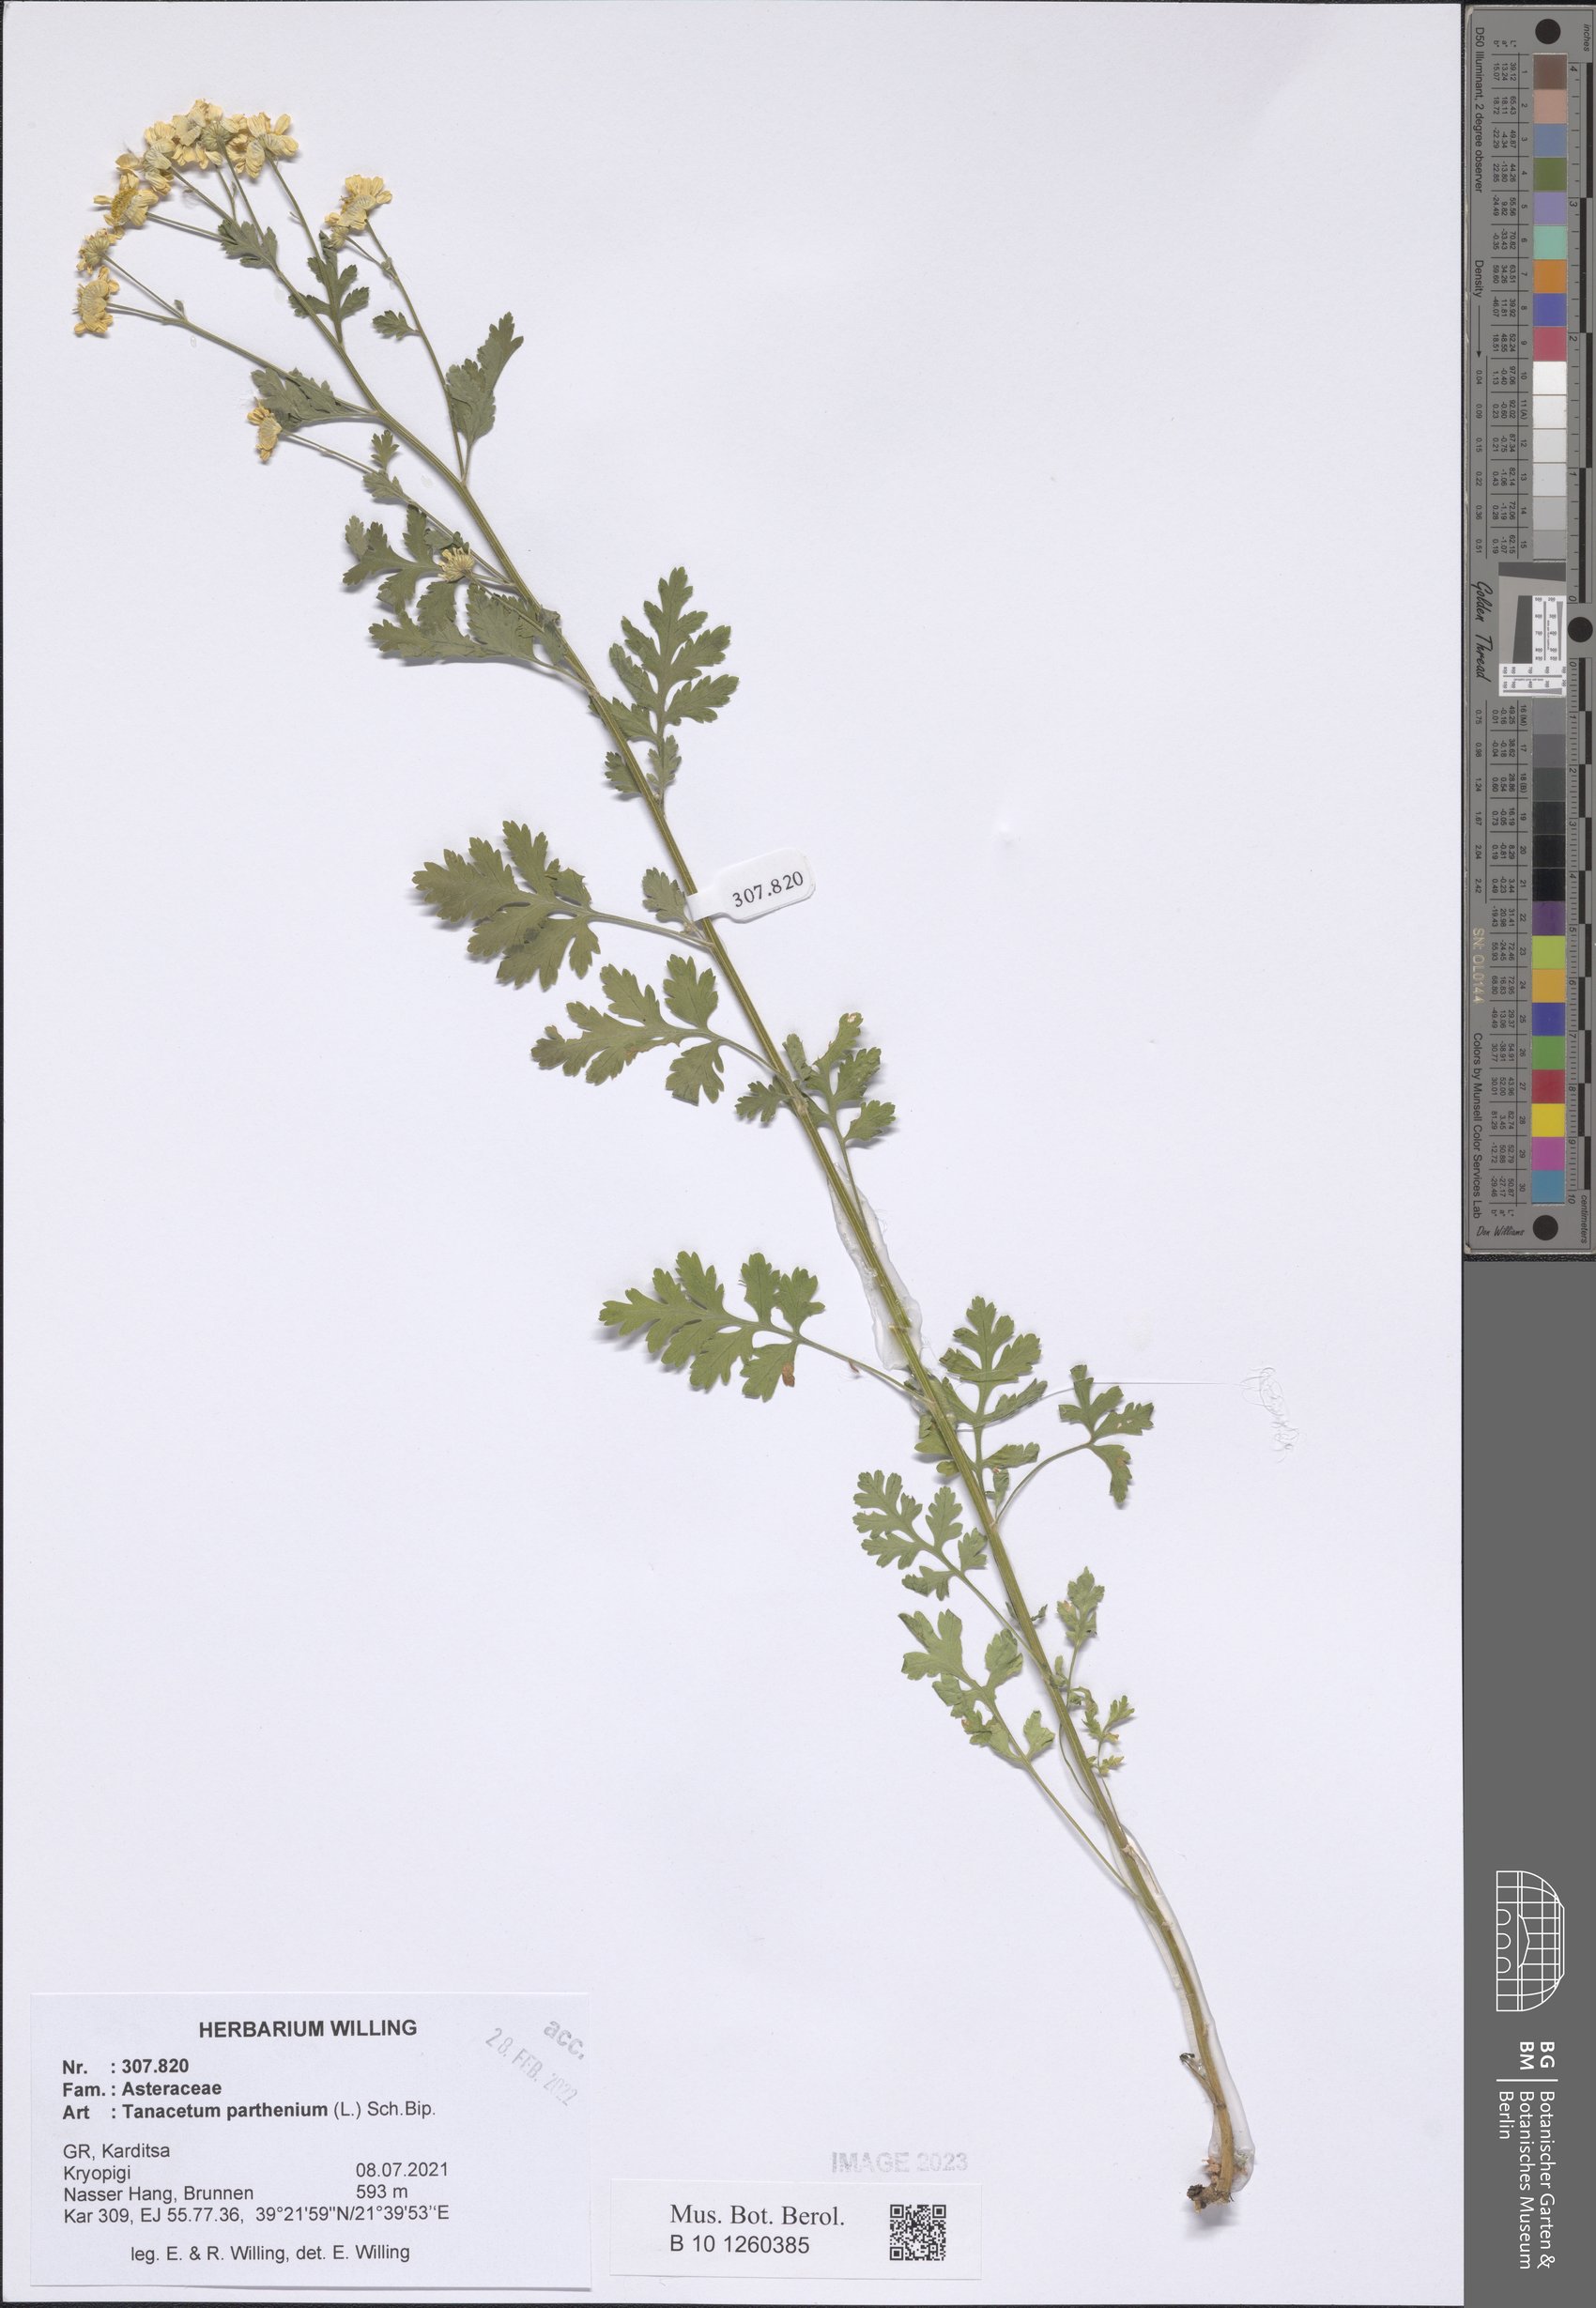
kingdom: Plantae
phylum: Tracheophyta
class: Magnoliopsida
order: Asterales
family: Asteraceae
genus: Tanacetum
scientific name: Tanacetum parthenium
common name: Feverfew
